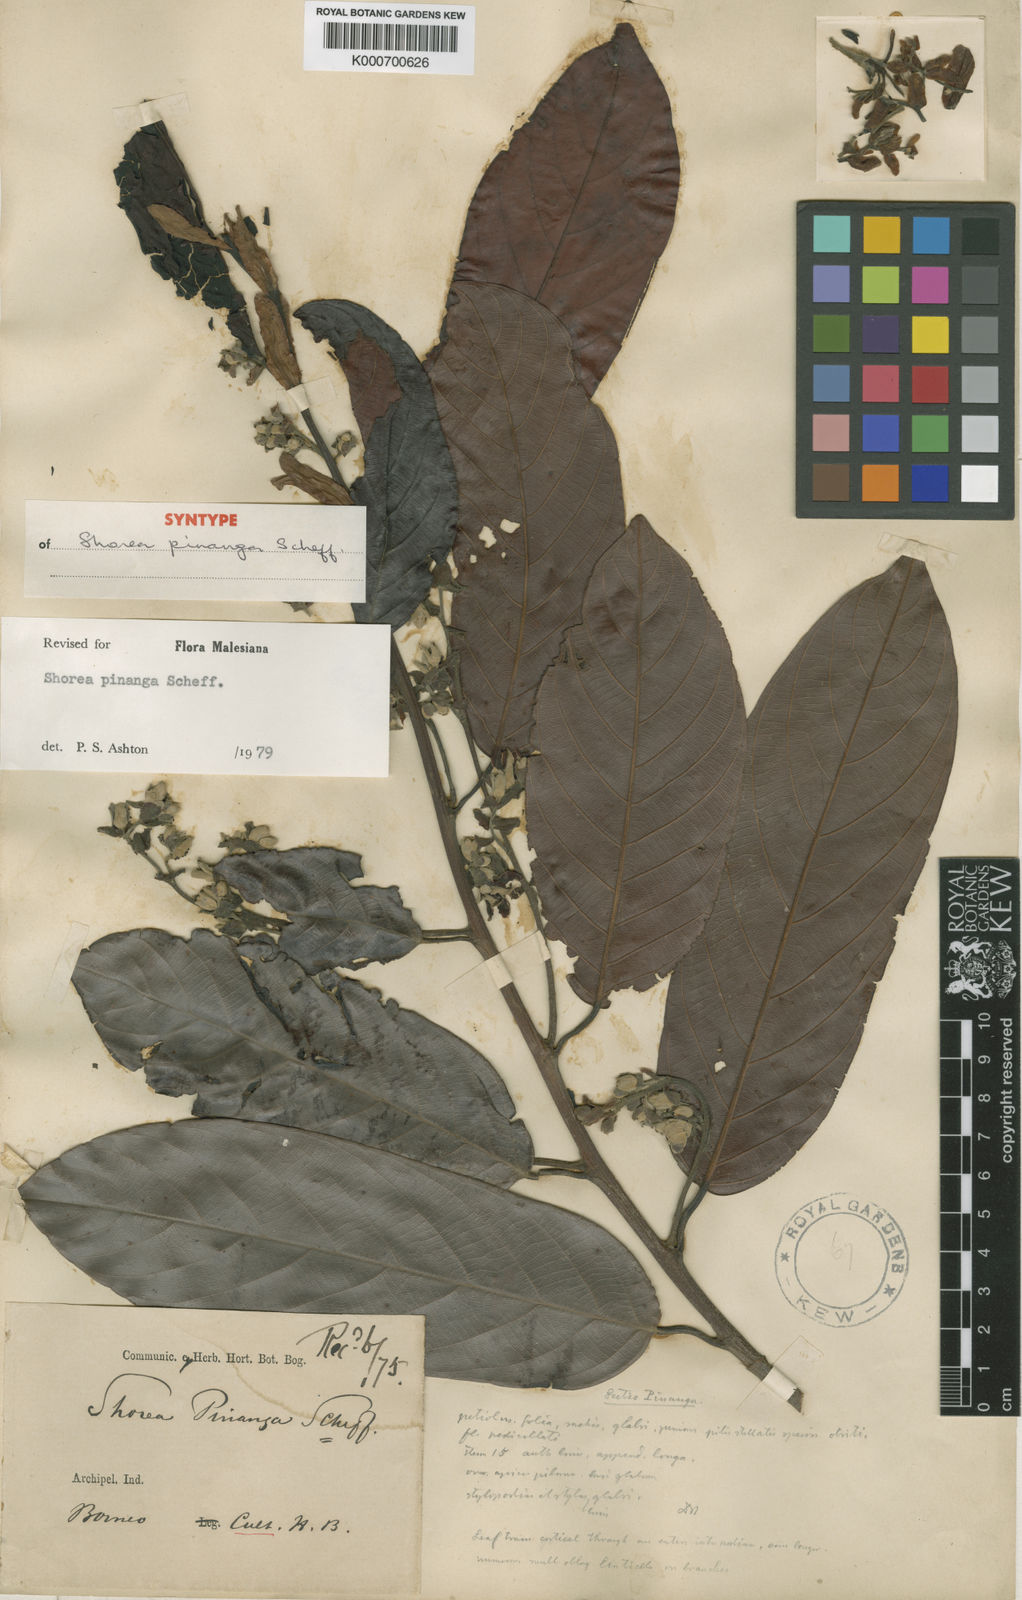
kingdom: Plantae
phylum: Tracheophyta
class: Magnoliopsida
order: Malvales
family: Dipterocarpaceae
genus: Shorea
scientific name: Shorea pinanga
